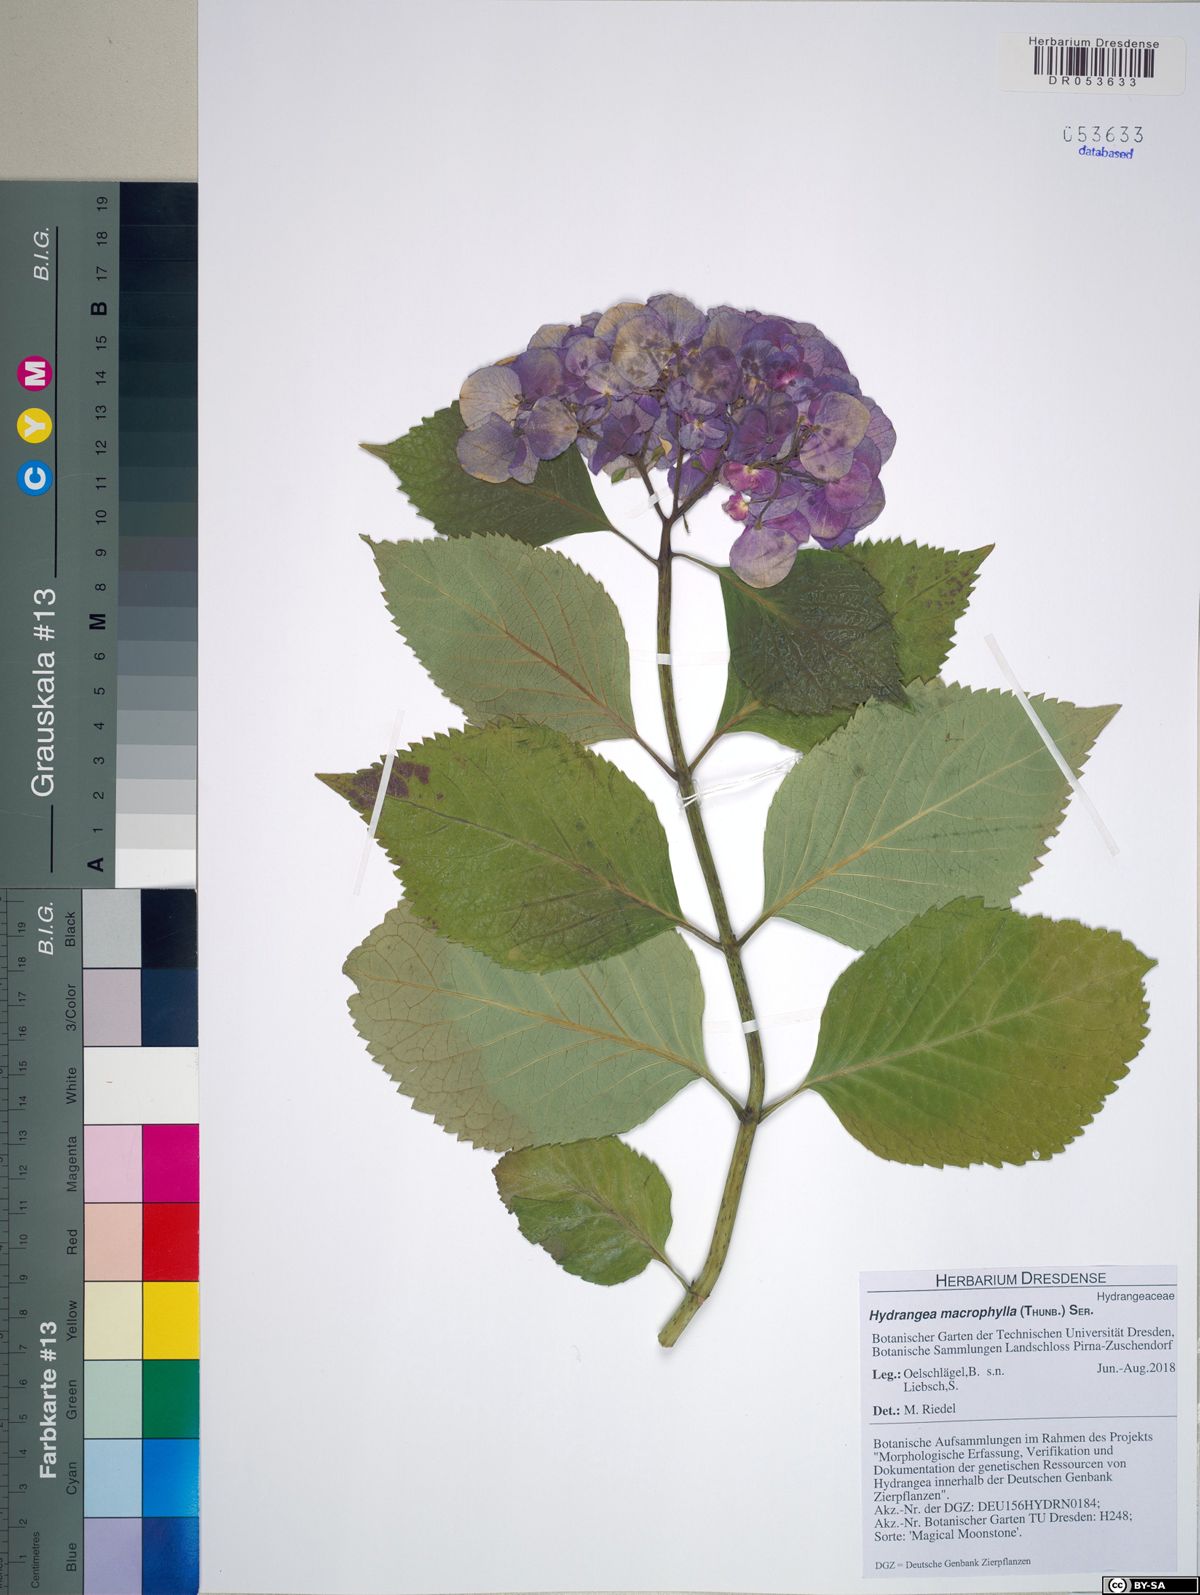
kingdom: Plantae
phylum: Tracheophyta
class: Magnoliopsida
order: Cornales
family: Hydrangeaceae
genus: Hydrangea
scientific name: Hydrangea macrophylla
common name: Hydrangea
